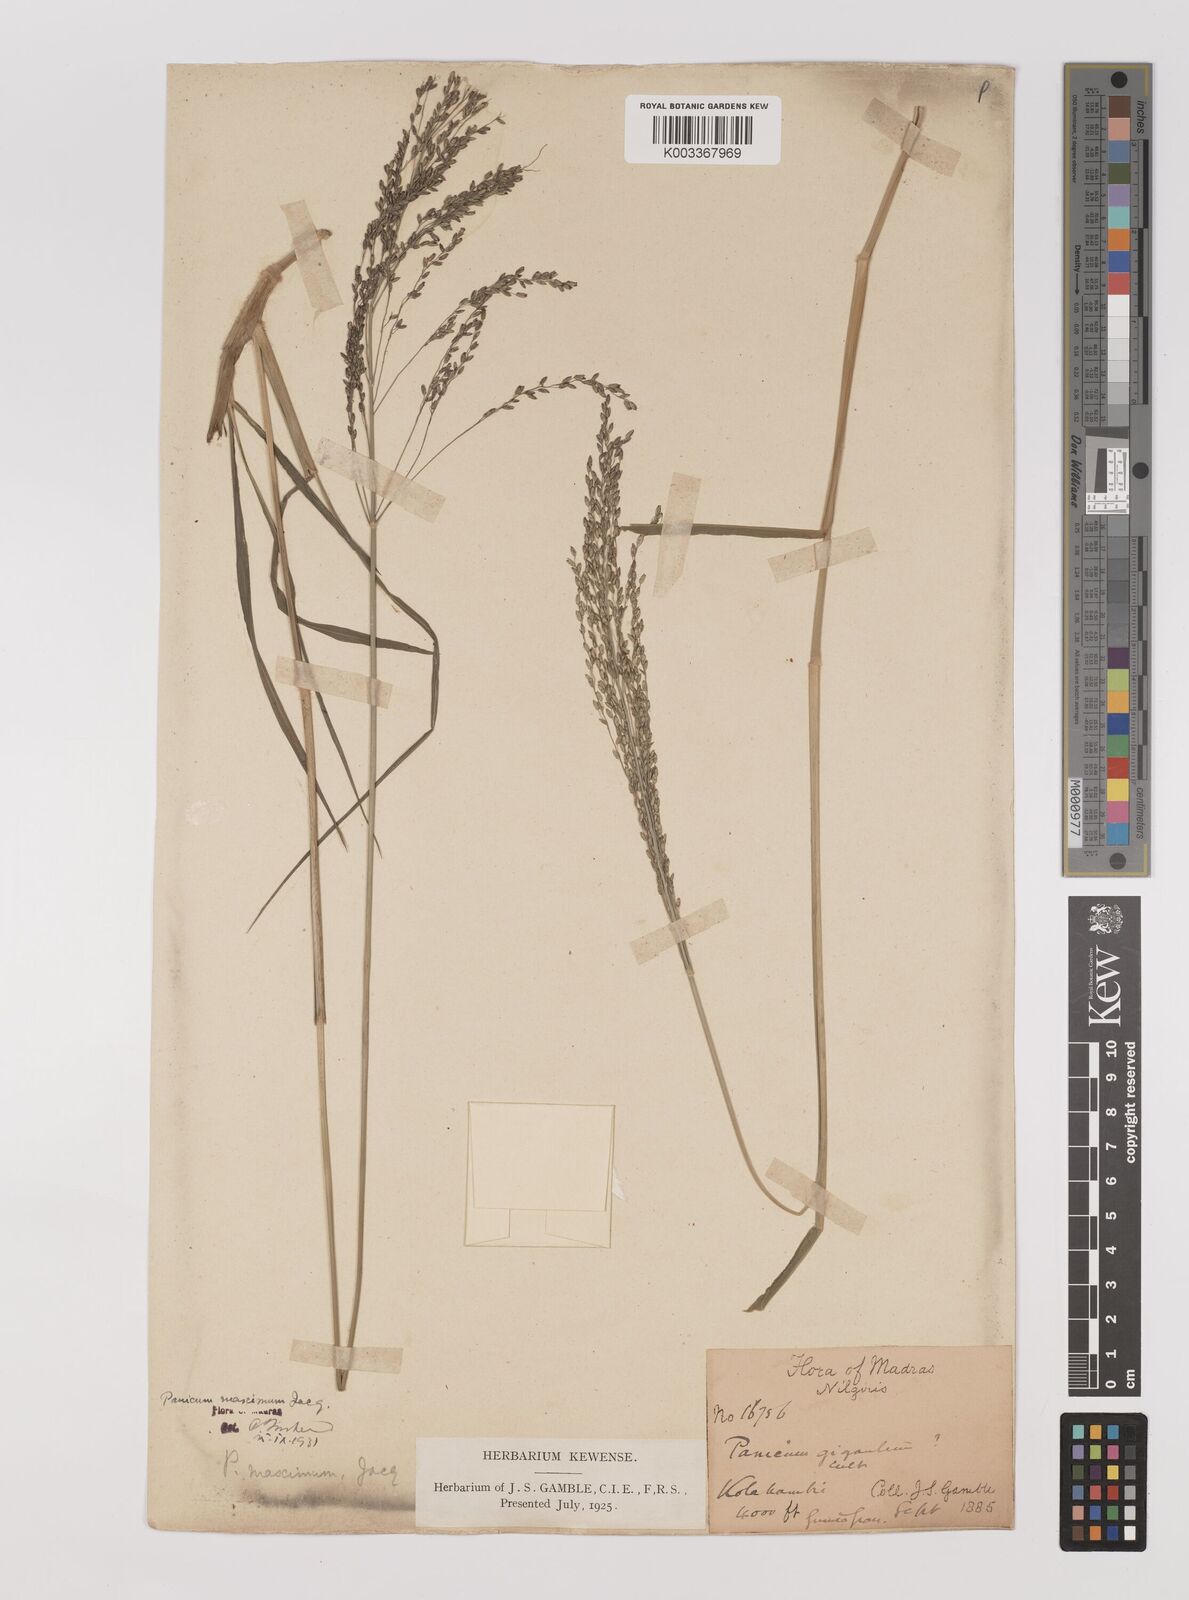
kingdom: Plantae
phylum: Tracheophyta
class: Liliopsida
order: Poales
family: Poaceae
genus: Megathyrsus
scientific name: Megathyrsus maximus
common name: Guineagrass
